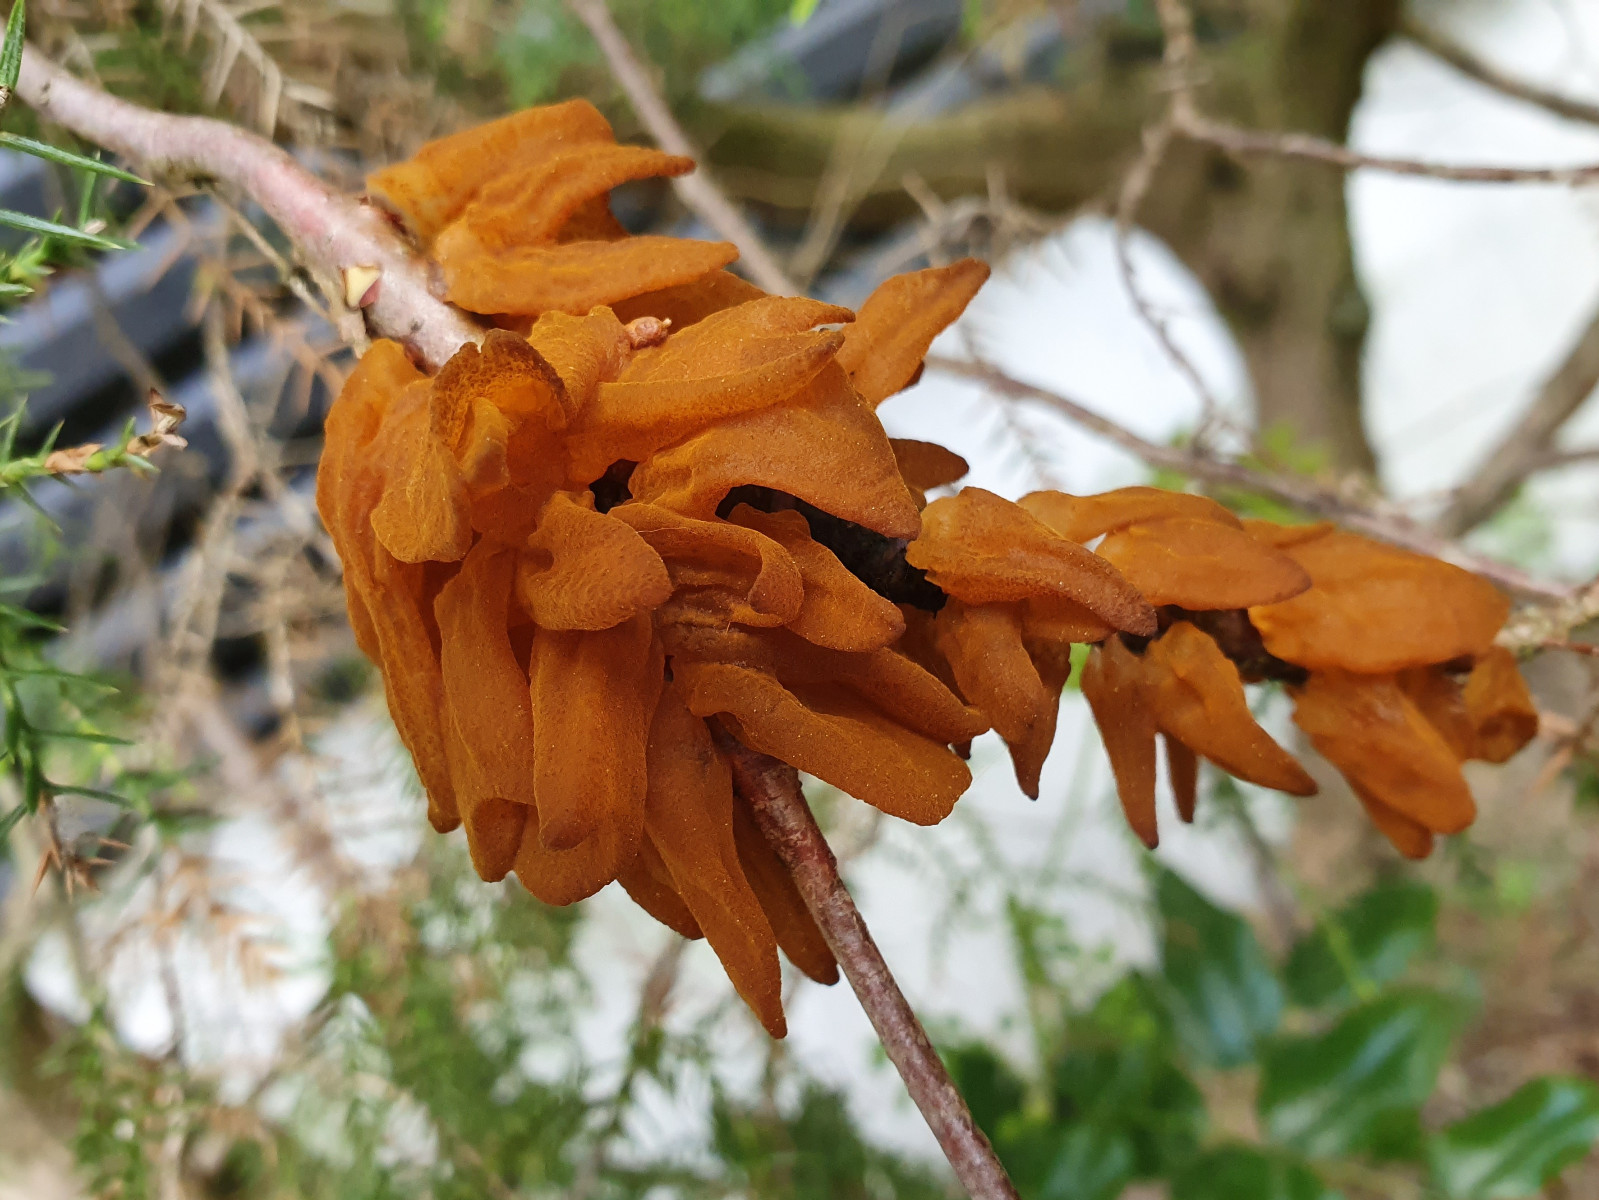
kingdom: Fungi
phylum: Basidiomycota
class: Pucciniomycetes
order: Pucciniales
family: Gymnosporangiaceae
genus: Gymnosporangium
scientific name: Gymnosporangium asiaticum
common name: Japanese pear rust
